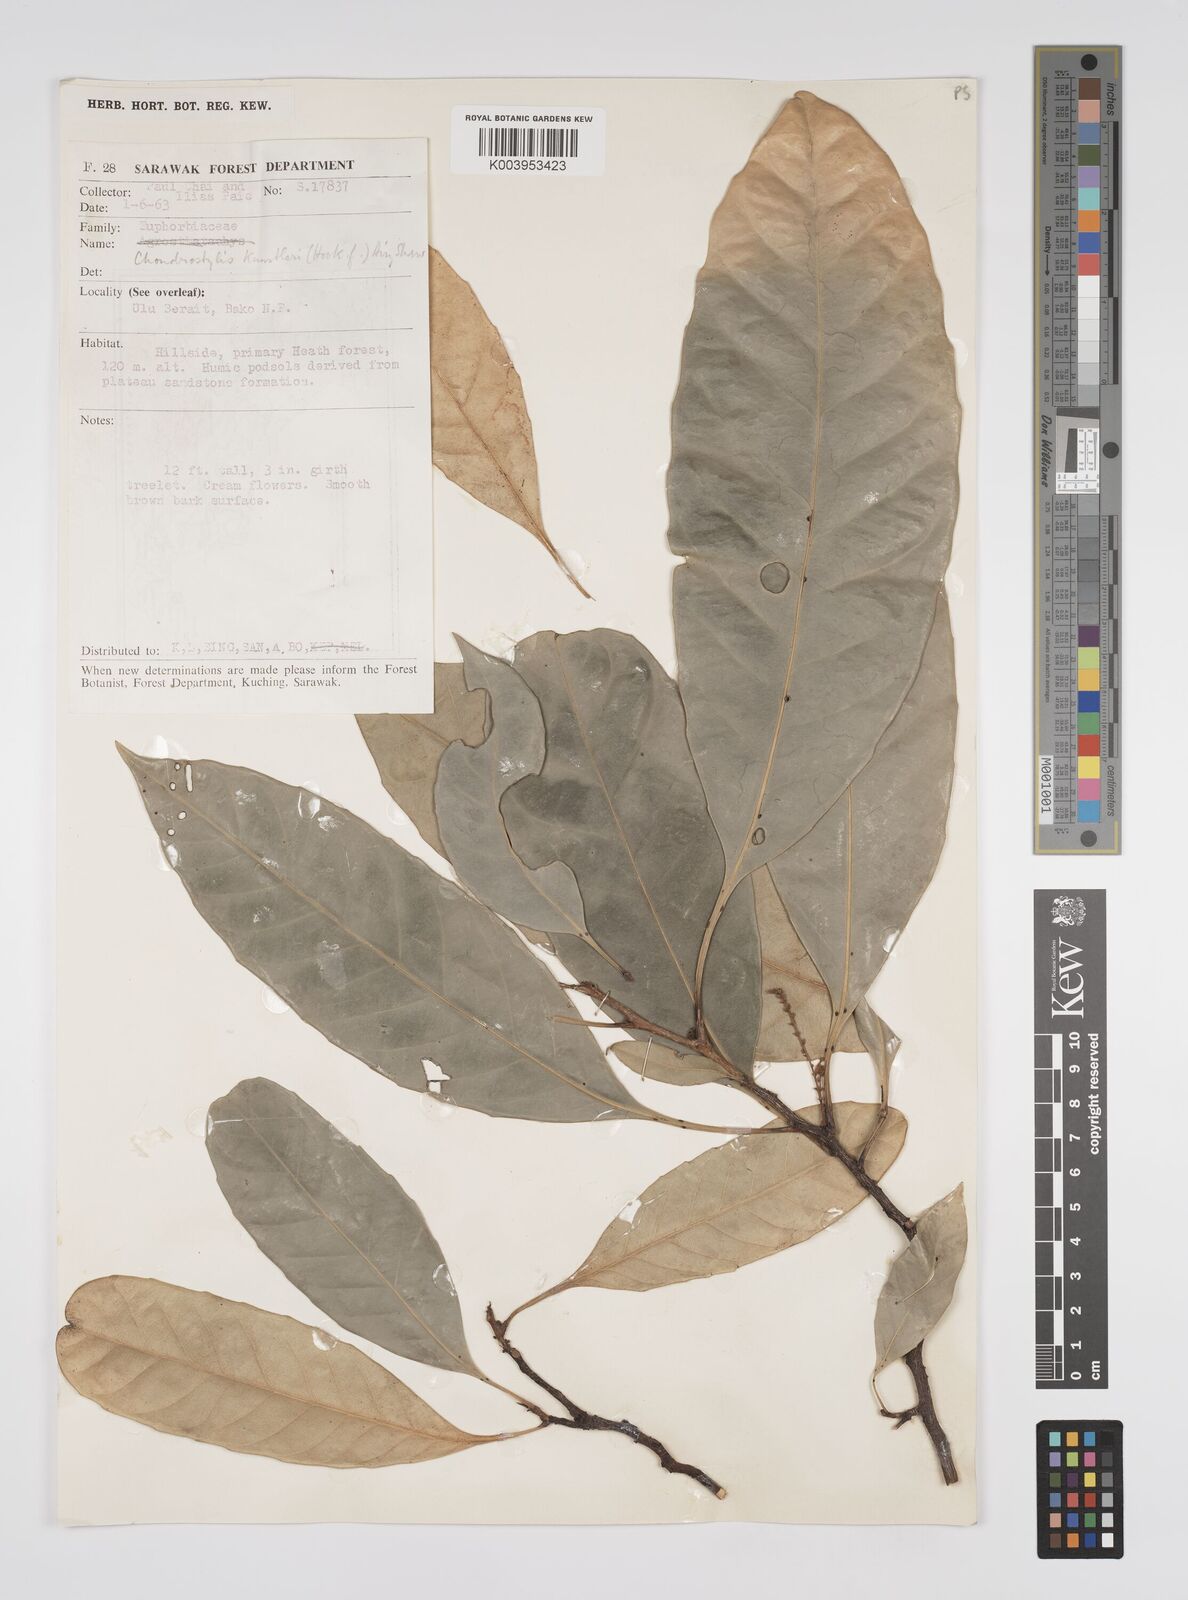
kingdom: Plantae
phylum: Tracheophyta
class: Magnoliopsida
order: Malpighiales
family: Euphorbiaceae
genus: Chondrostylis
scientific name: Chondrostylis kunstleri
